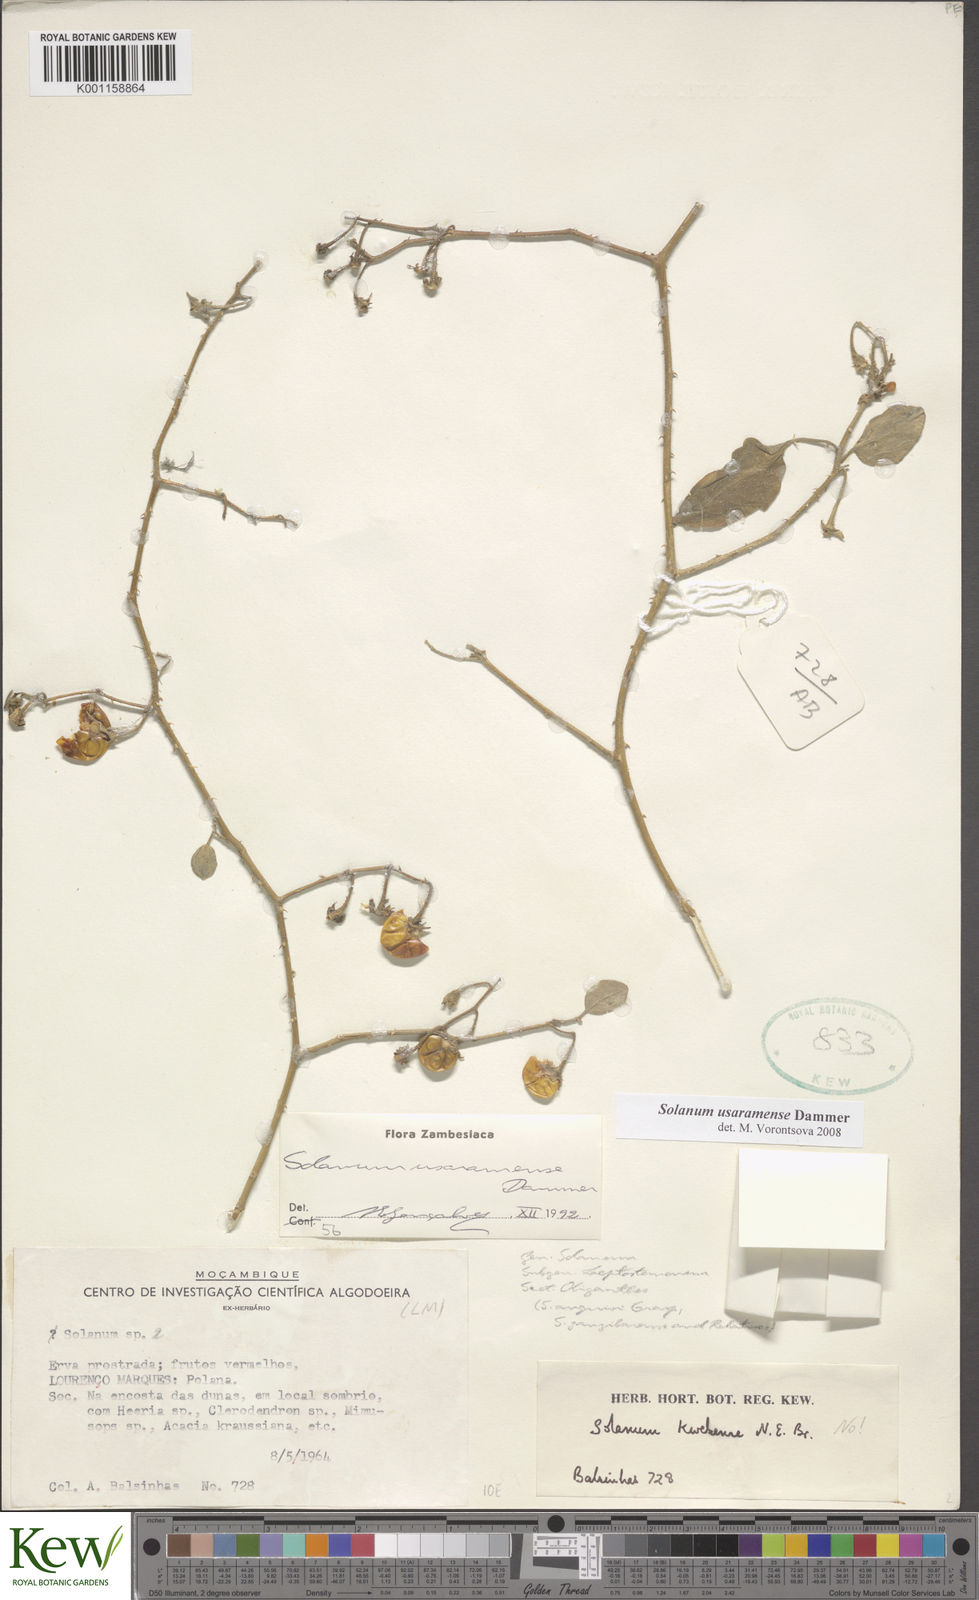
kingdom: Plantae
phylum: Tracheophyta
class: Magnoliopsida
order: Solanales
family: Solanaceae
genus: Solanum
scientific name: Solanum usaramense
